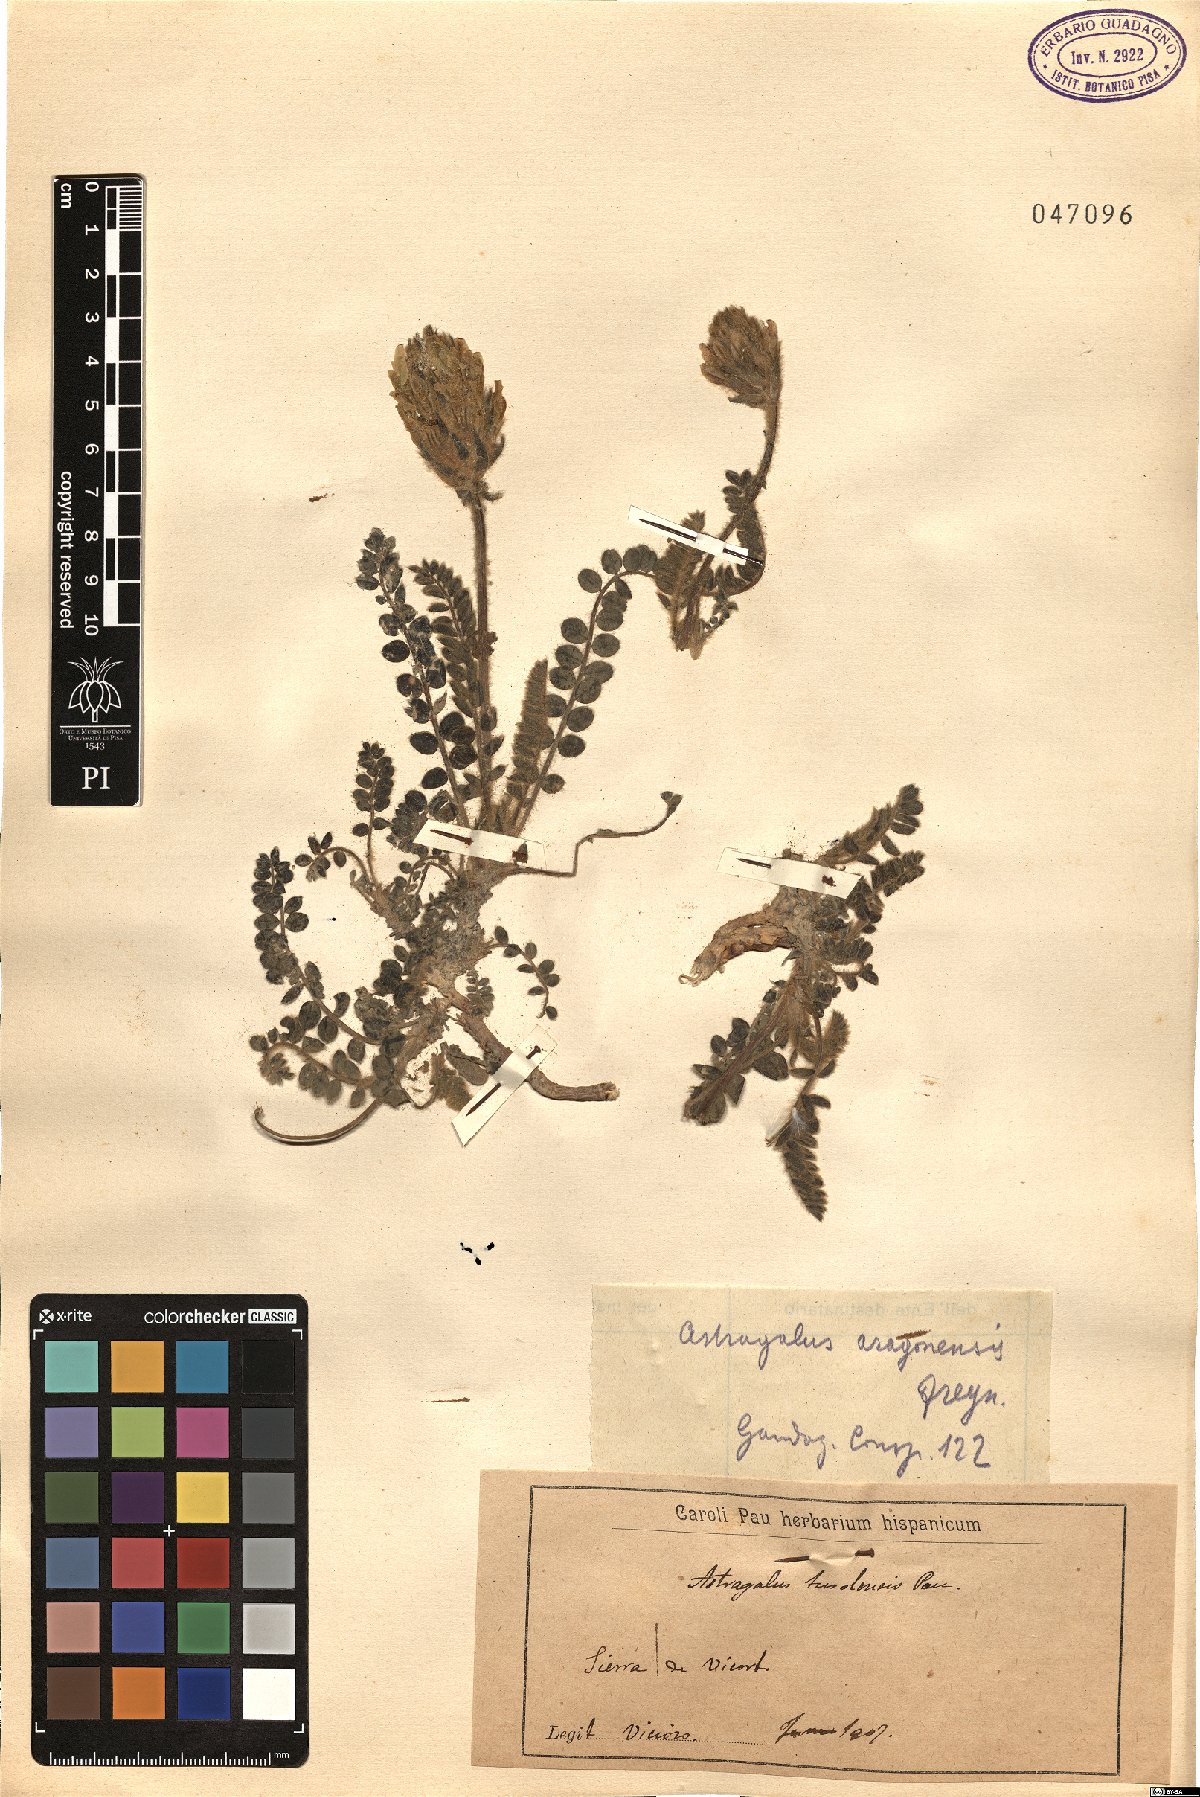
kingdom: Plantae
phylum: Tracheophyta
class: Magnoliopsida
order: Fabales
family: Fabaceae
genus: Astragalus
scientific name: Astragalus turolensis
